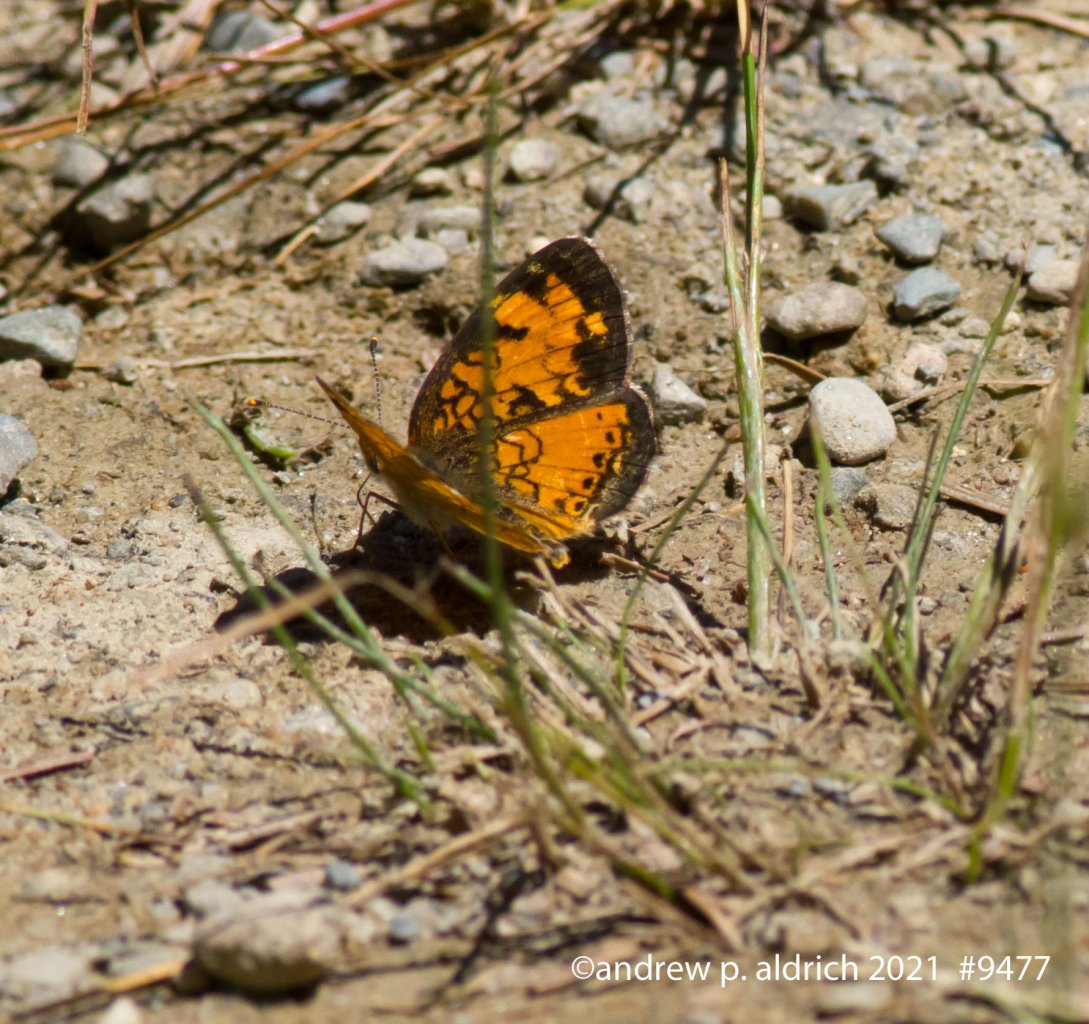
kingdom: Animalia
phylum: Arthropoda
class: Insecta
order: Lepidoptera
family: Nymphalidae
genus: Chlosyne
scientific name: Chlosyne harrisii
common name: Harris's Checkerspot
